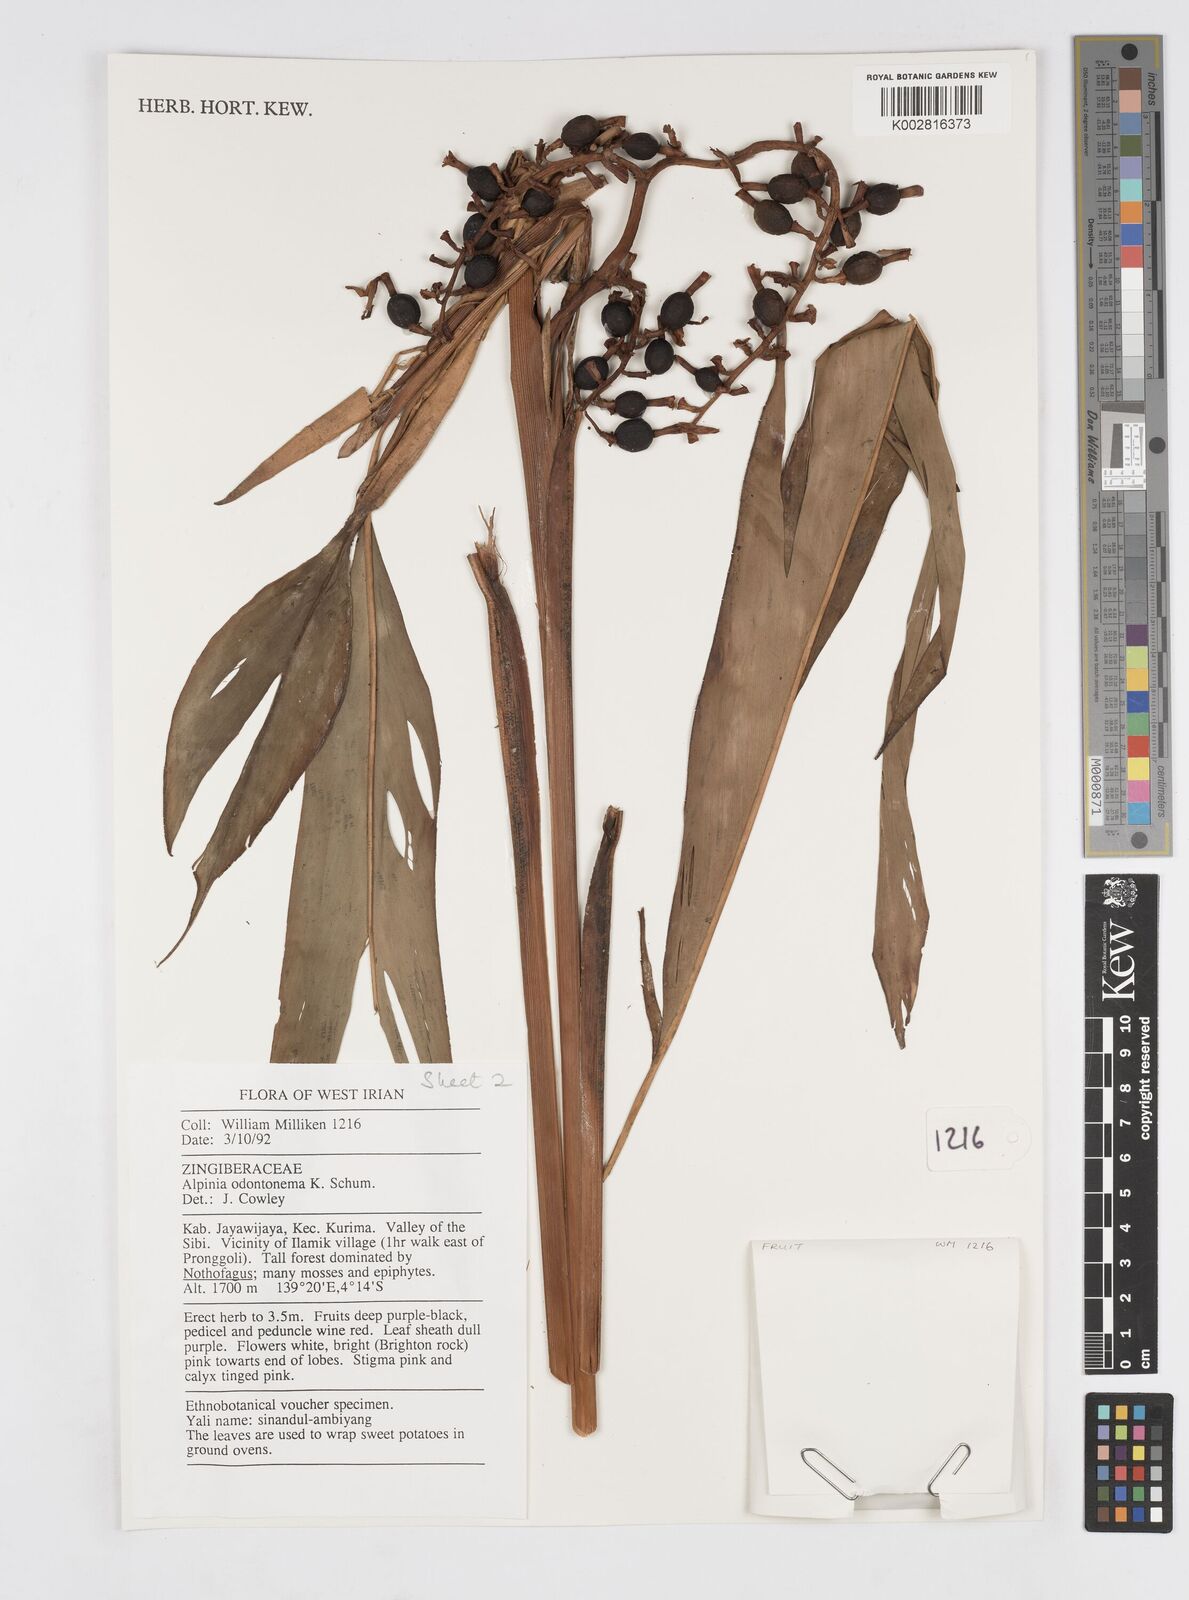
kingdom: Plantae
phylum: Tracheophyta
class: Liliopsida
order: Zingiberales
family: Zingiberaceae
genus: Alpinia
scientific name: Alpinia odontonema
